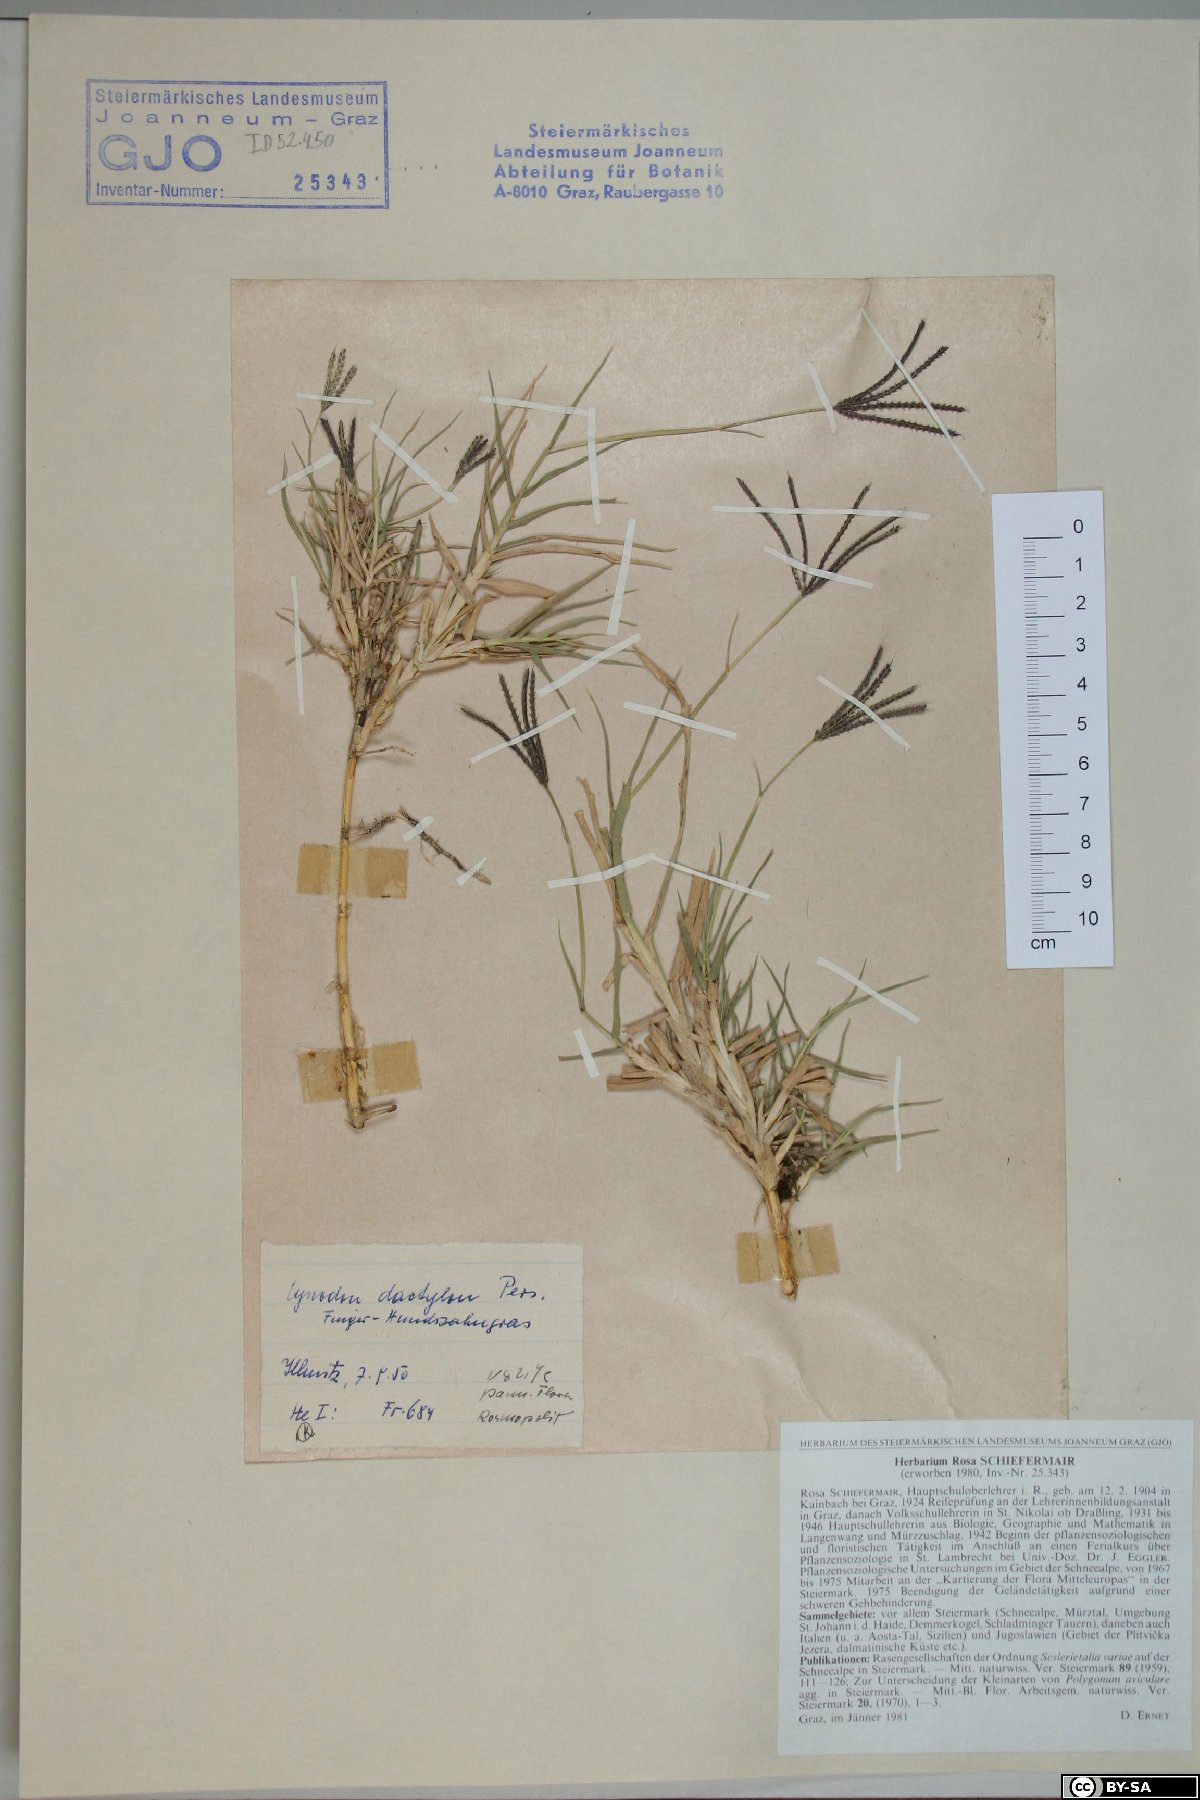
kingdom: Plantae
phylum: Tracheophyta
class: Liliopsida
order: Poales
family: Poaceae
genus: Cynodon
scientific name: Cynodon dactylon
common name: Bermuda grass
